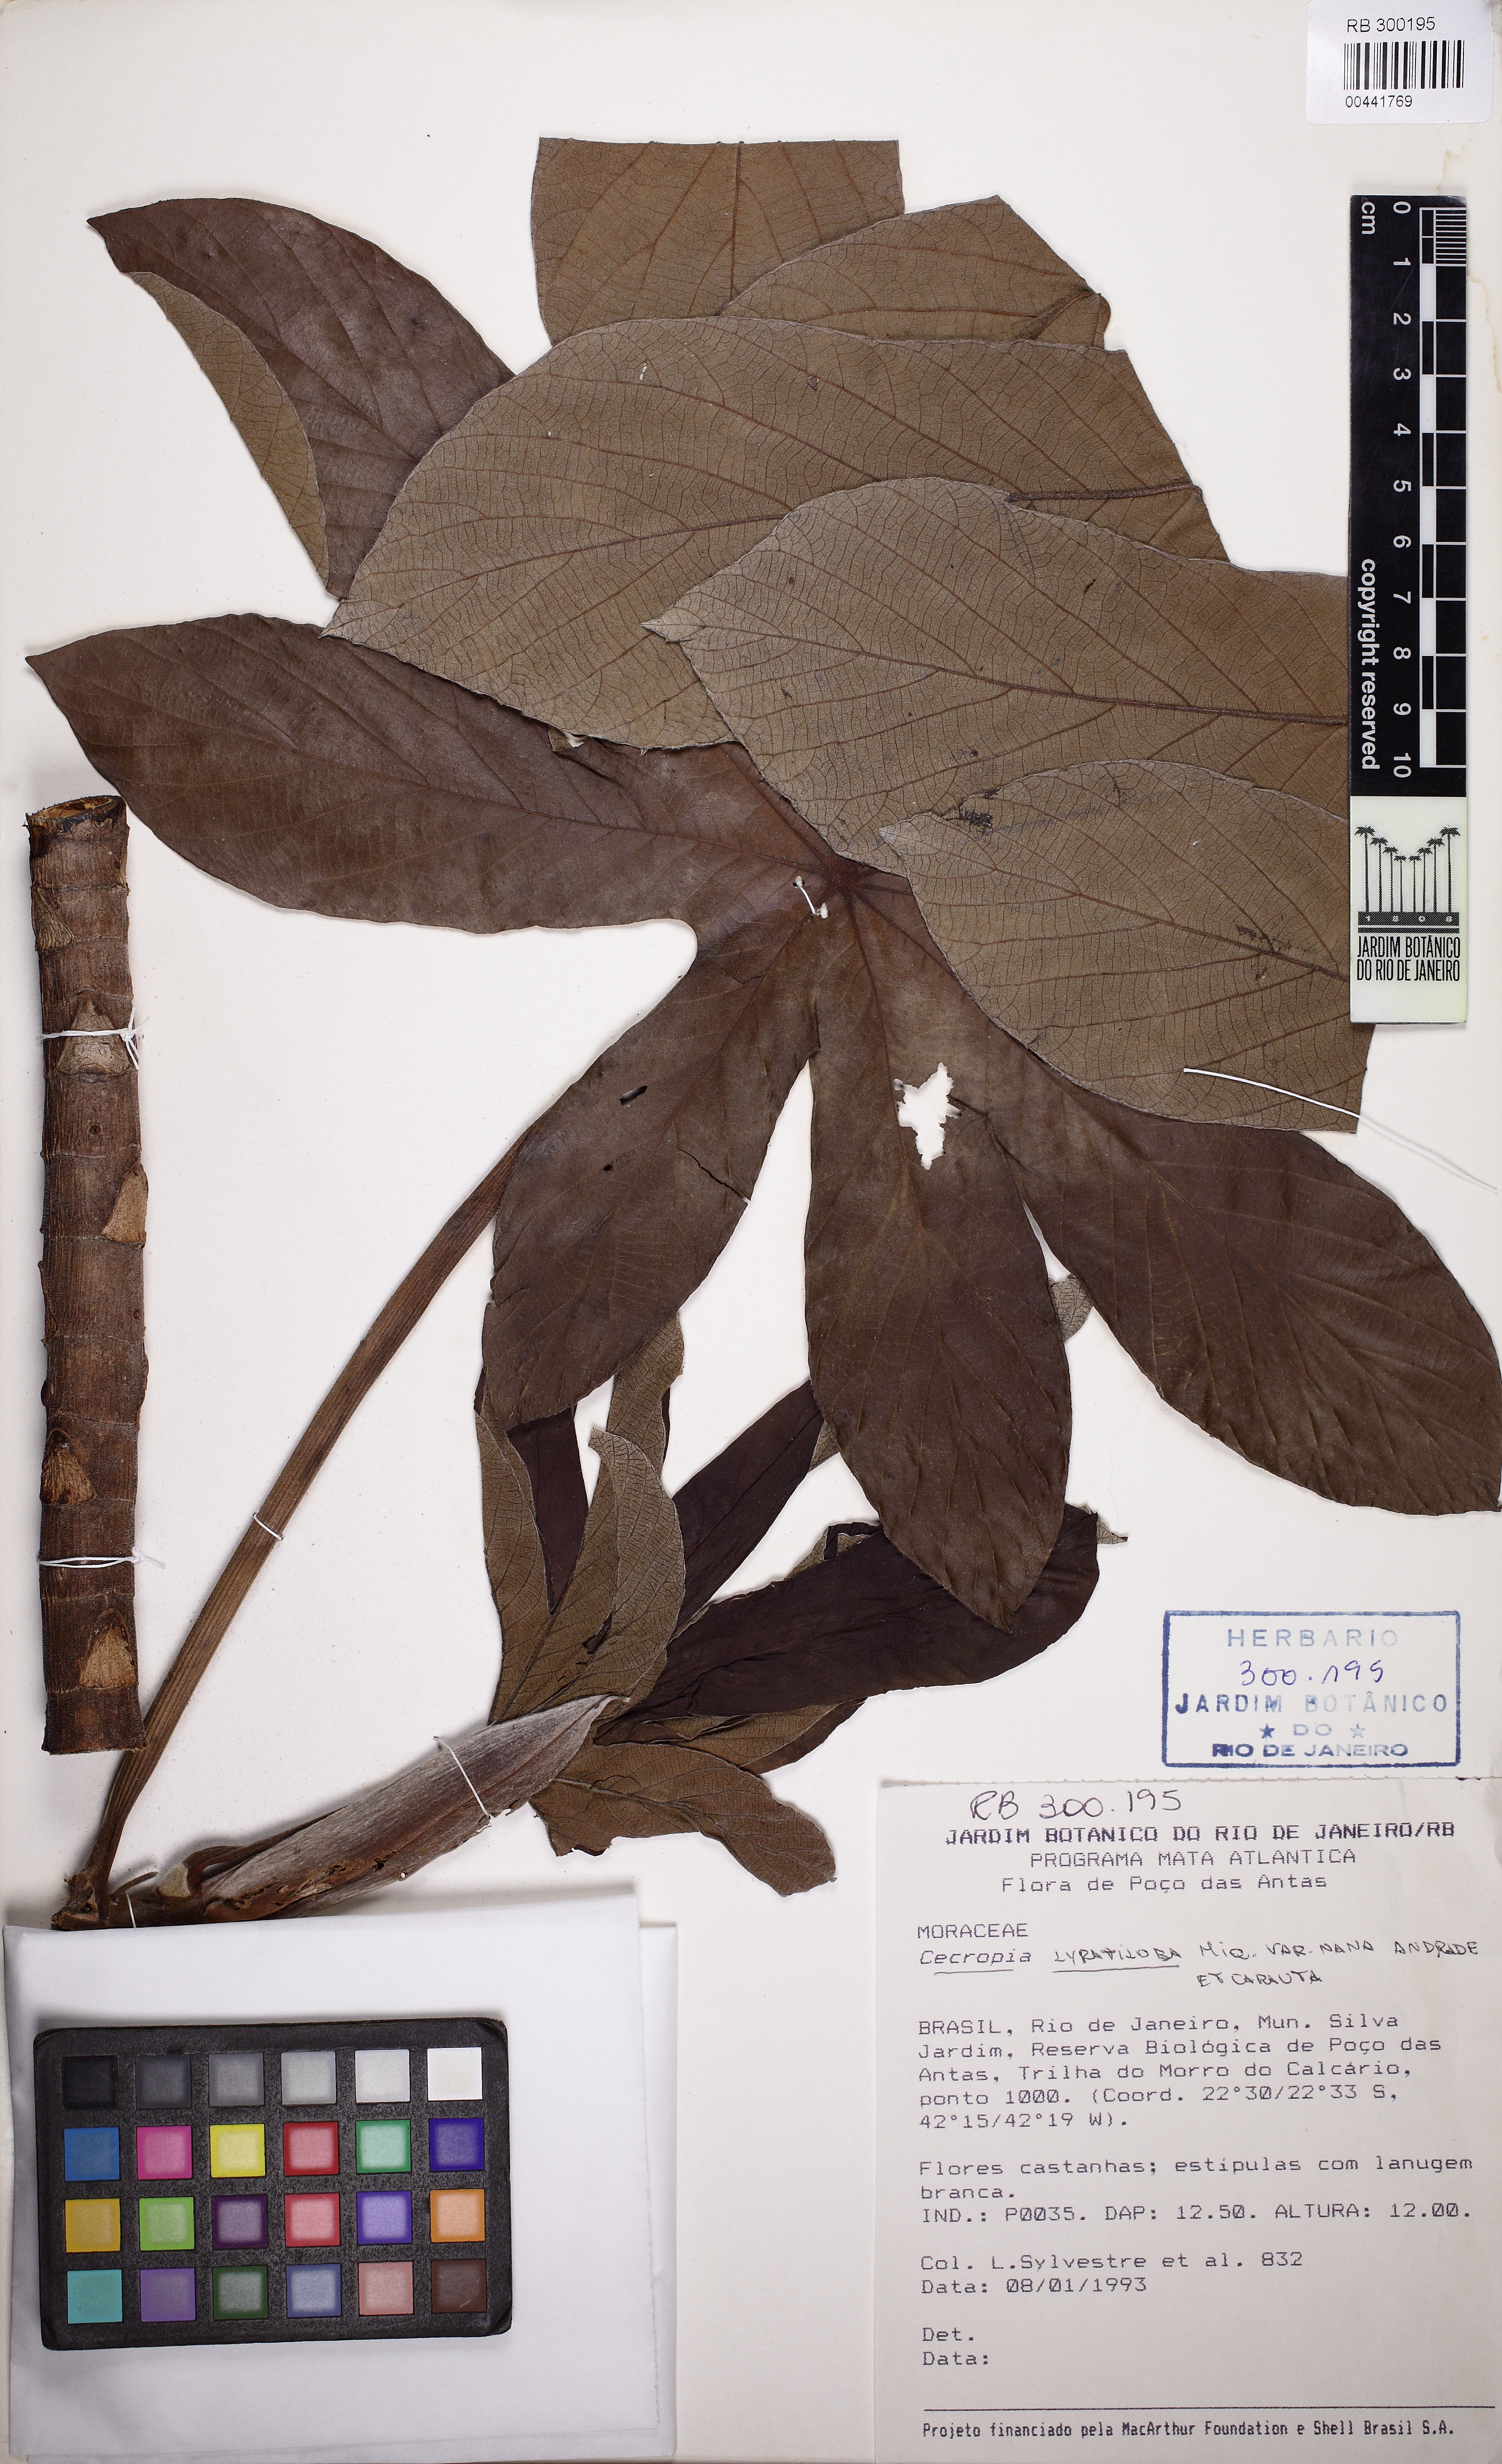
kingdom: Plantae
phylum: Tracheophyta
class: Magnoliopsida
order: Rosales
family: Urticaceae
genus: Cecropia
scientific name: Cecropia pachystachya
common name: Ambay pumpwood
